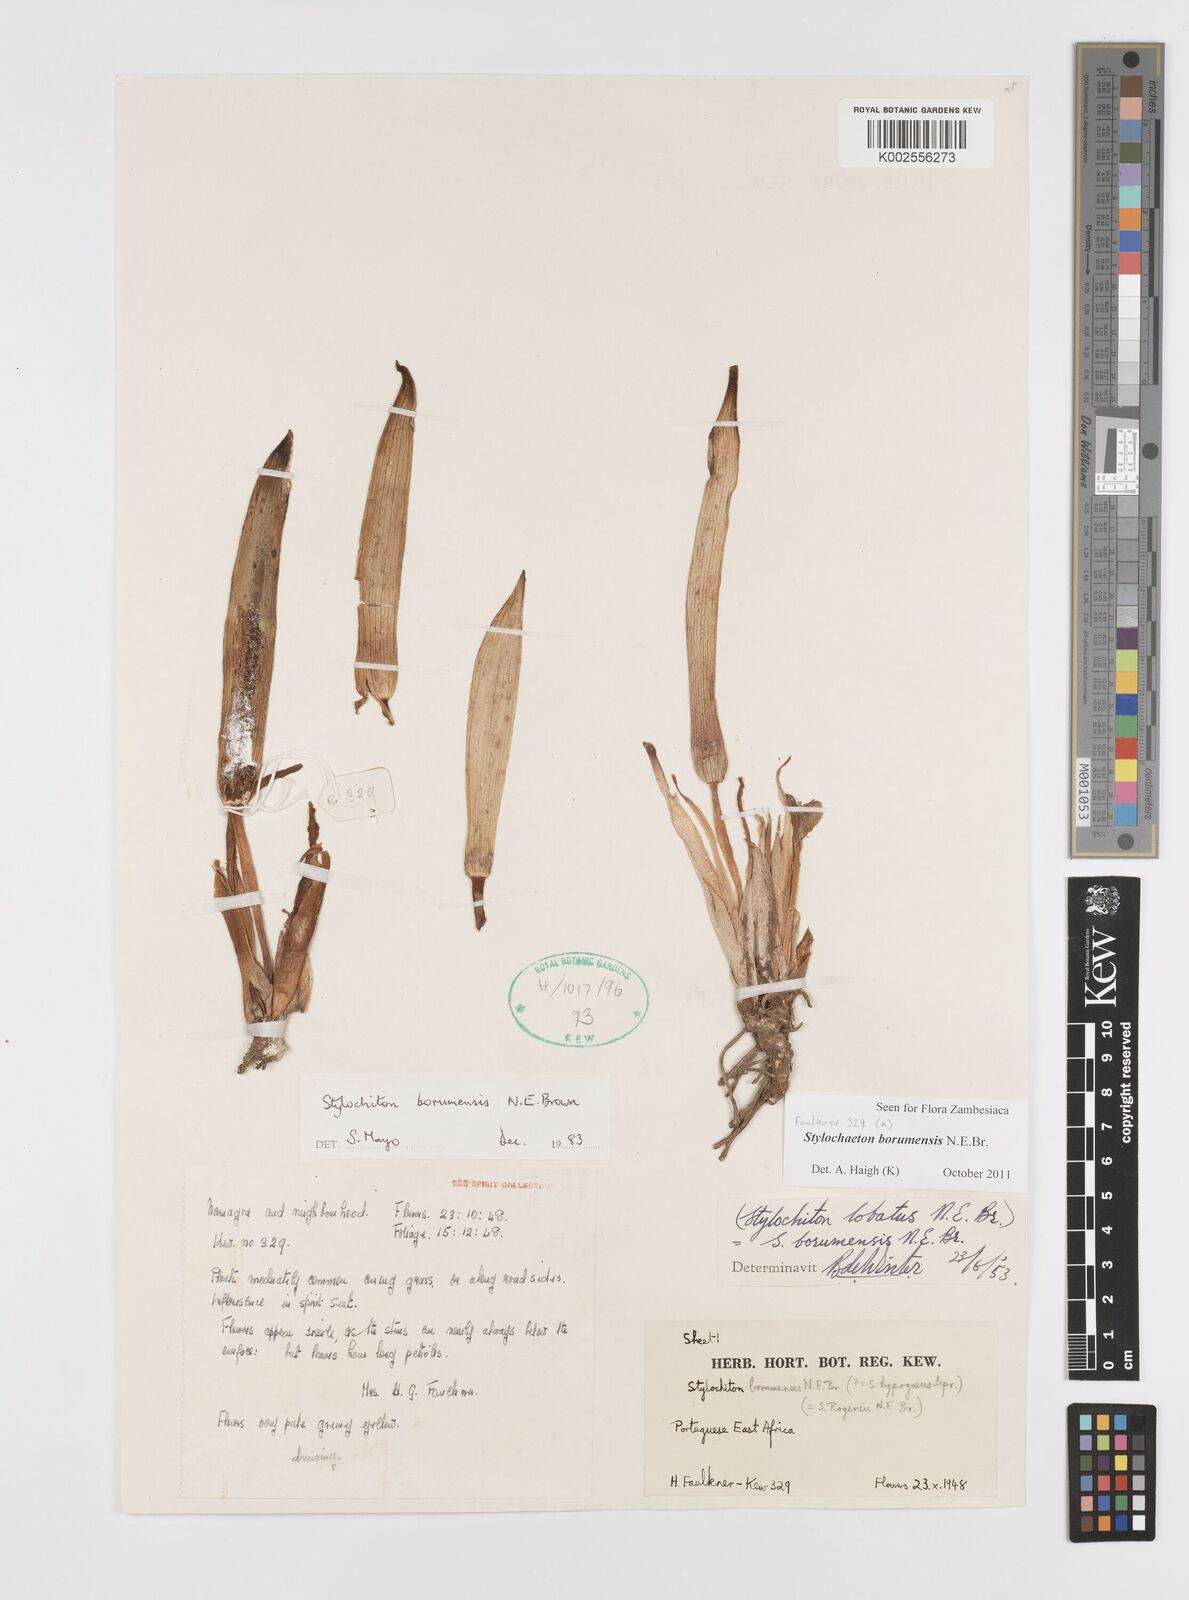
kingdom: Plantae
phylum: Tracheophyta
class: Liliopsida
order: Alismatales
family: Araceae
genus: Stylochaeton
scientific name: Stylochaeton borumense
